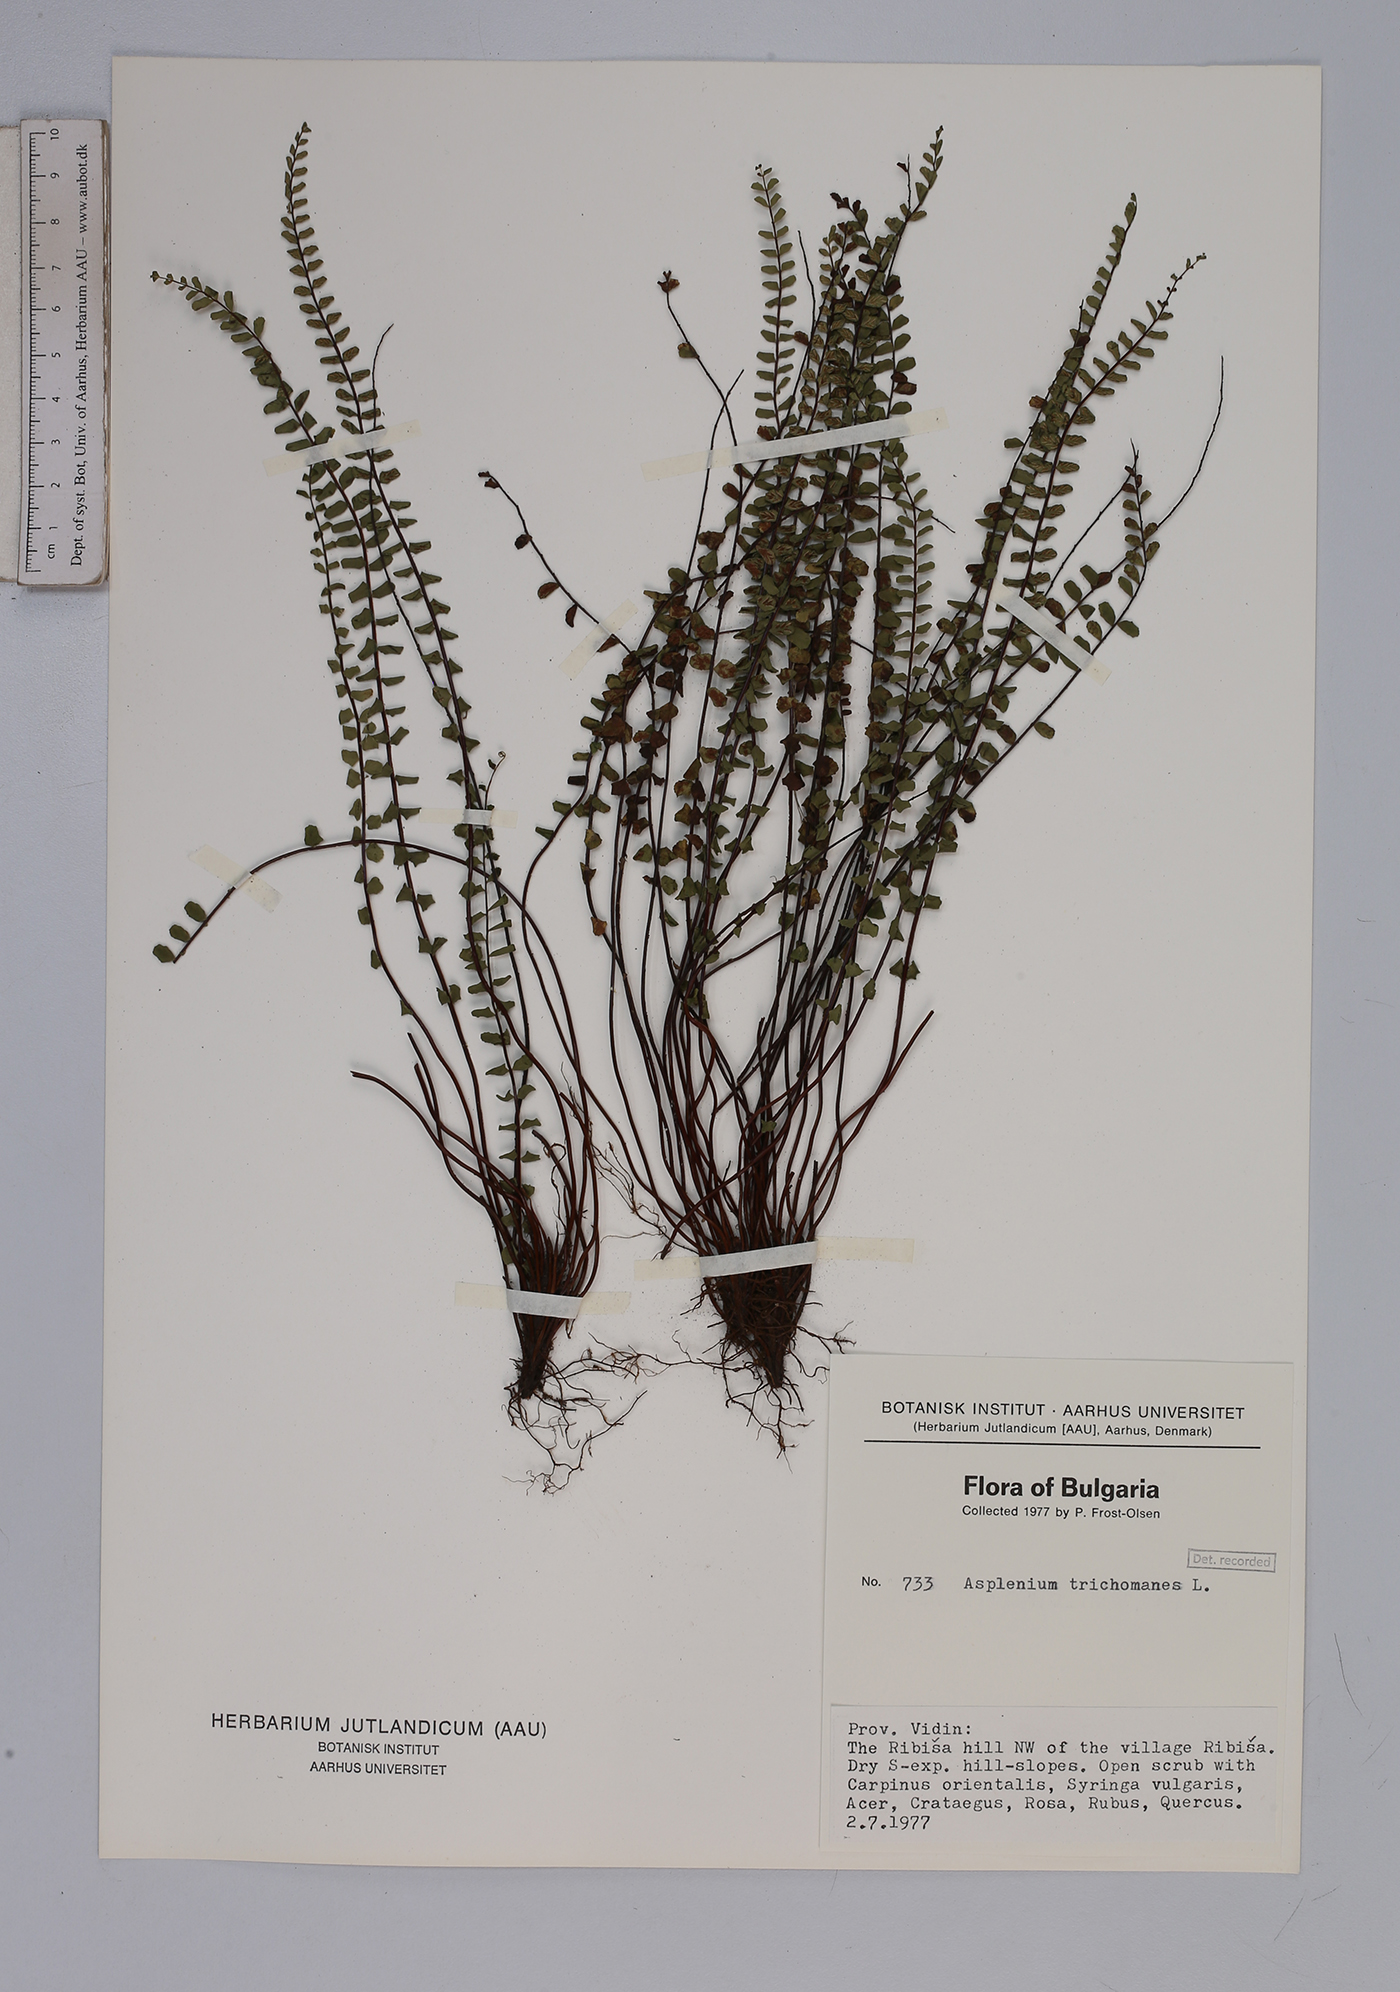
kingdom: Plantae
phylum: Tracheophyta
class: Polypodiopsida
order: Polypodiales
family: Aspleniaceae
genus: Asplenium
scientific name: Asplenium trichomanes
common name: Maidenhair spleenwort
